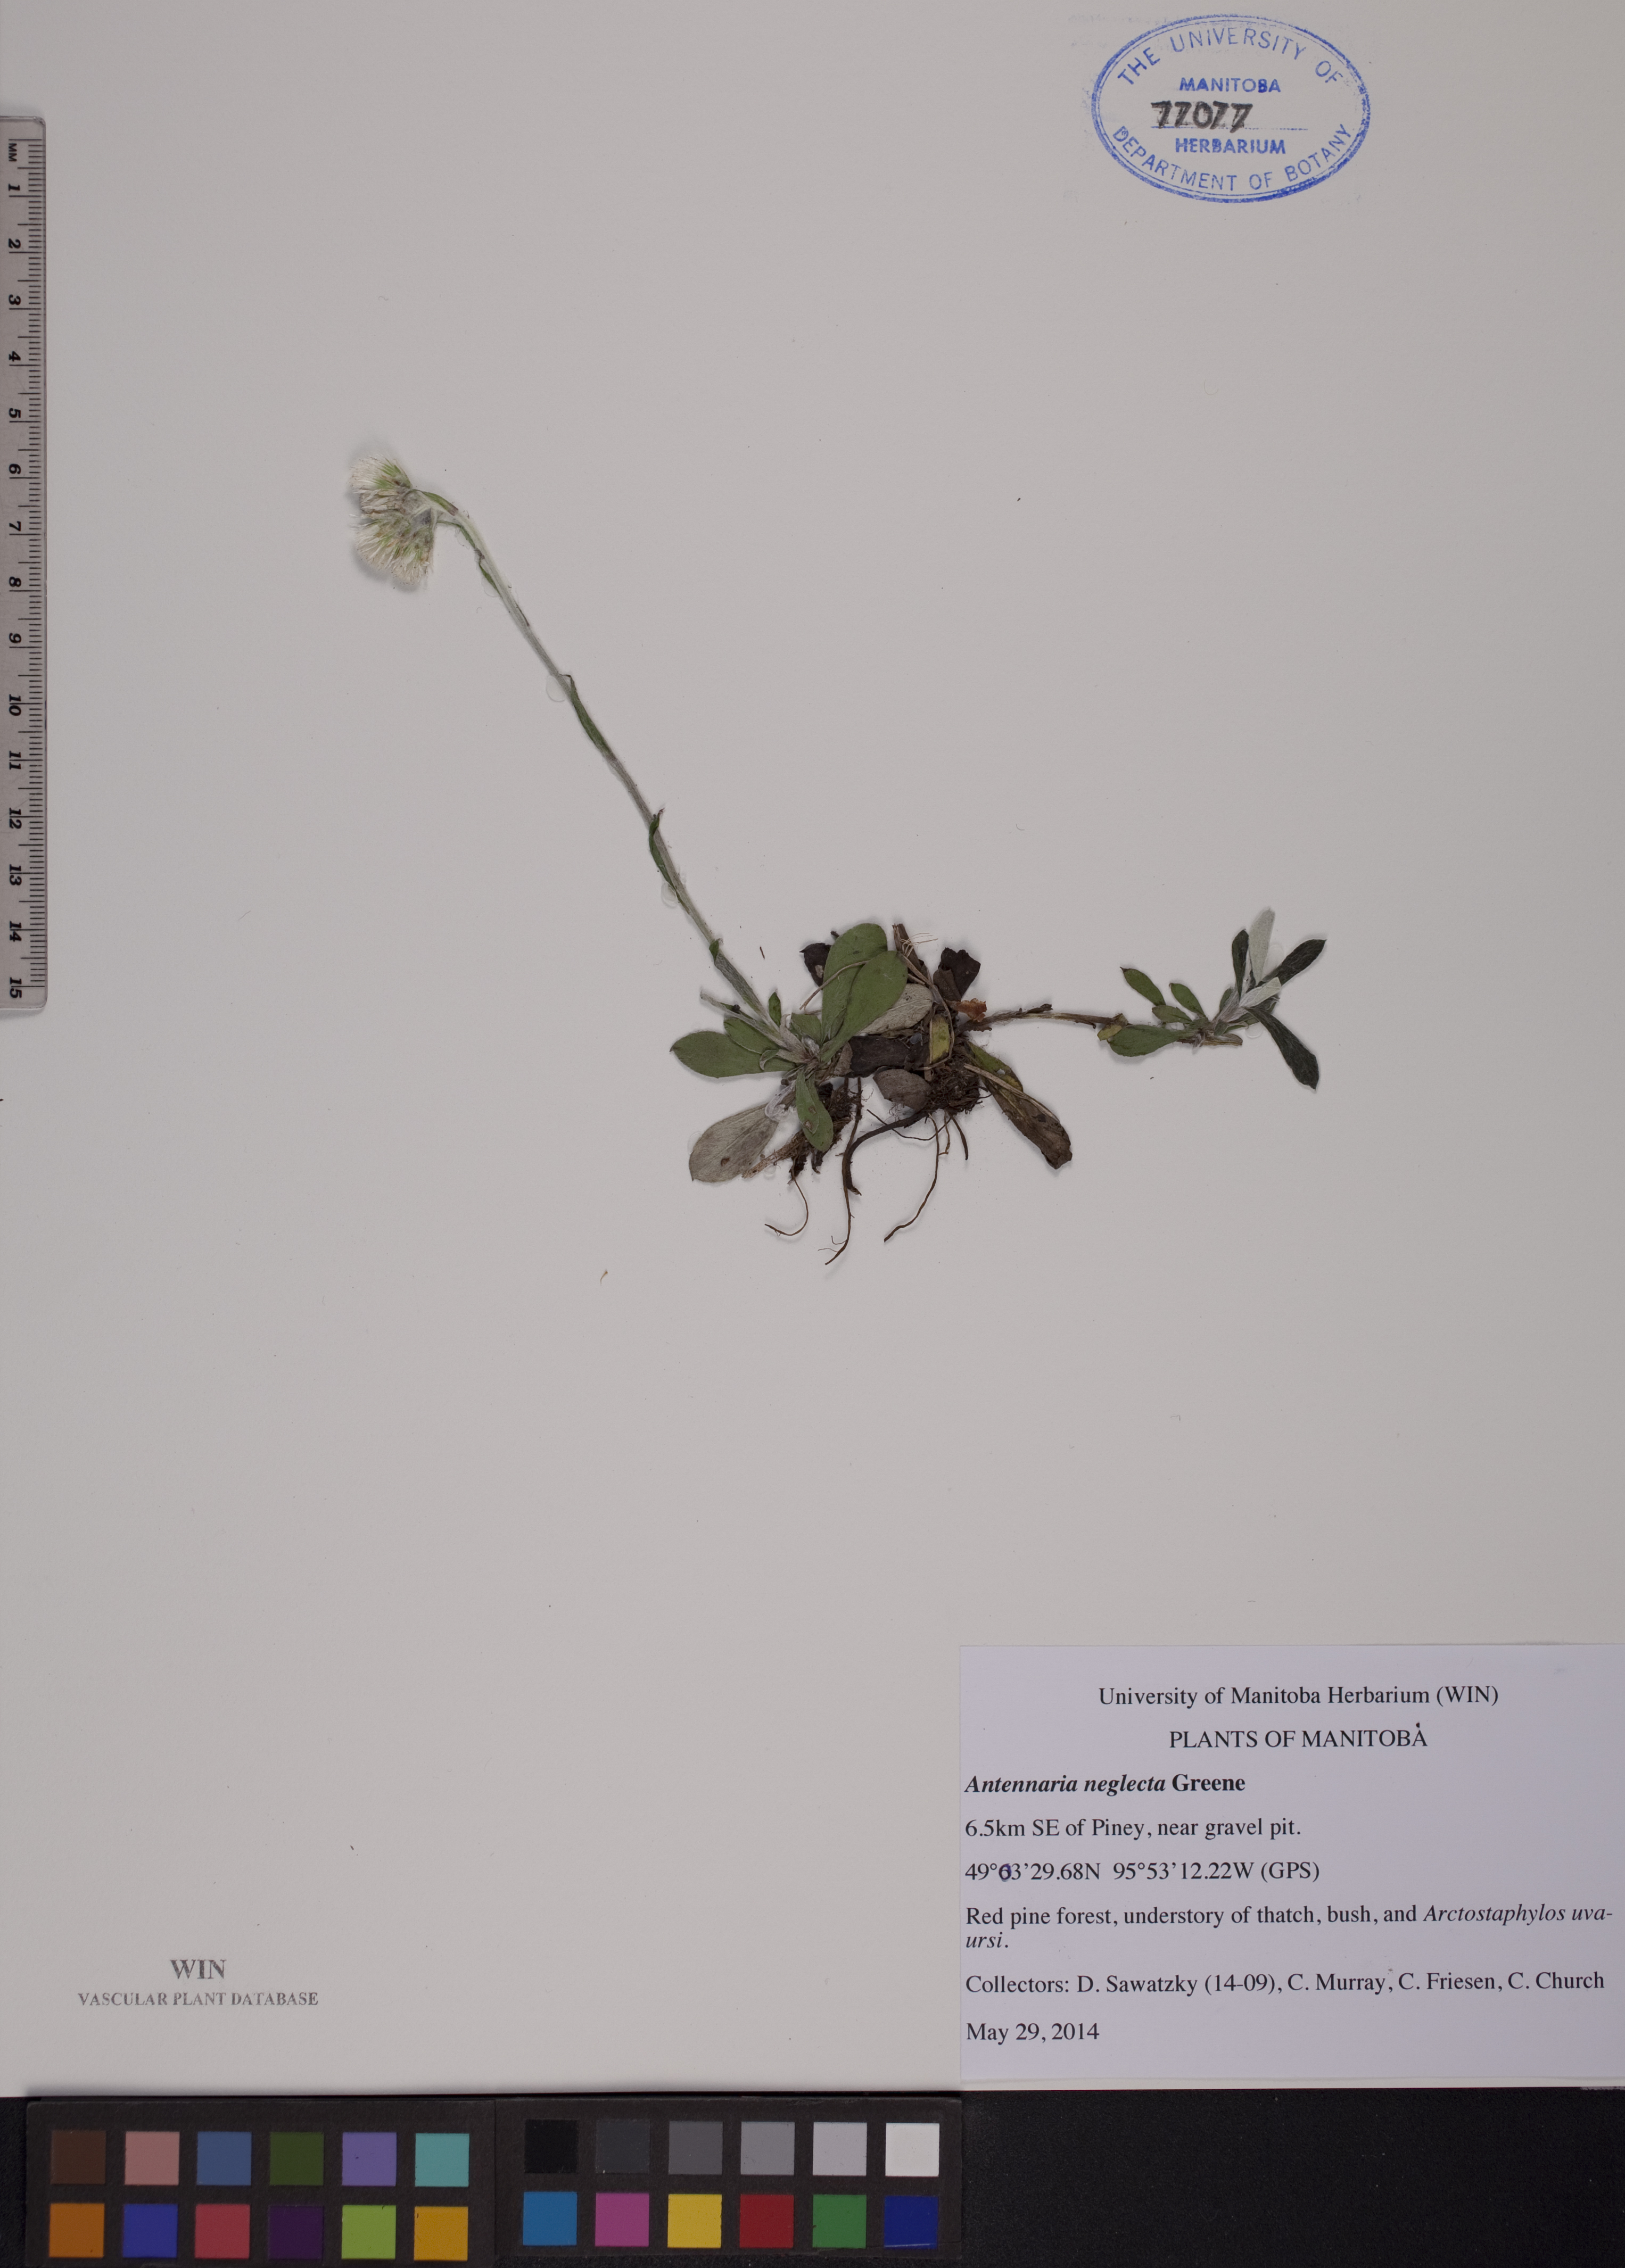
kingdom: Plantae
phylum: Tracheophyta
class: Magnoliopsida
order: Asterales
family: Asteraceae
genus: Antennaria
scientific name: Antennaria neglecta
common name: Field pussytoes
